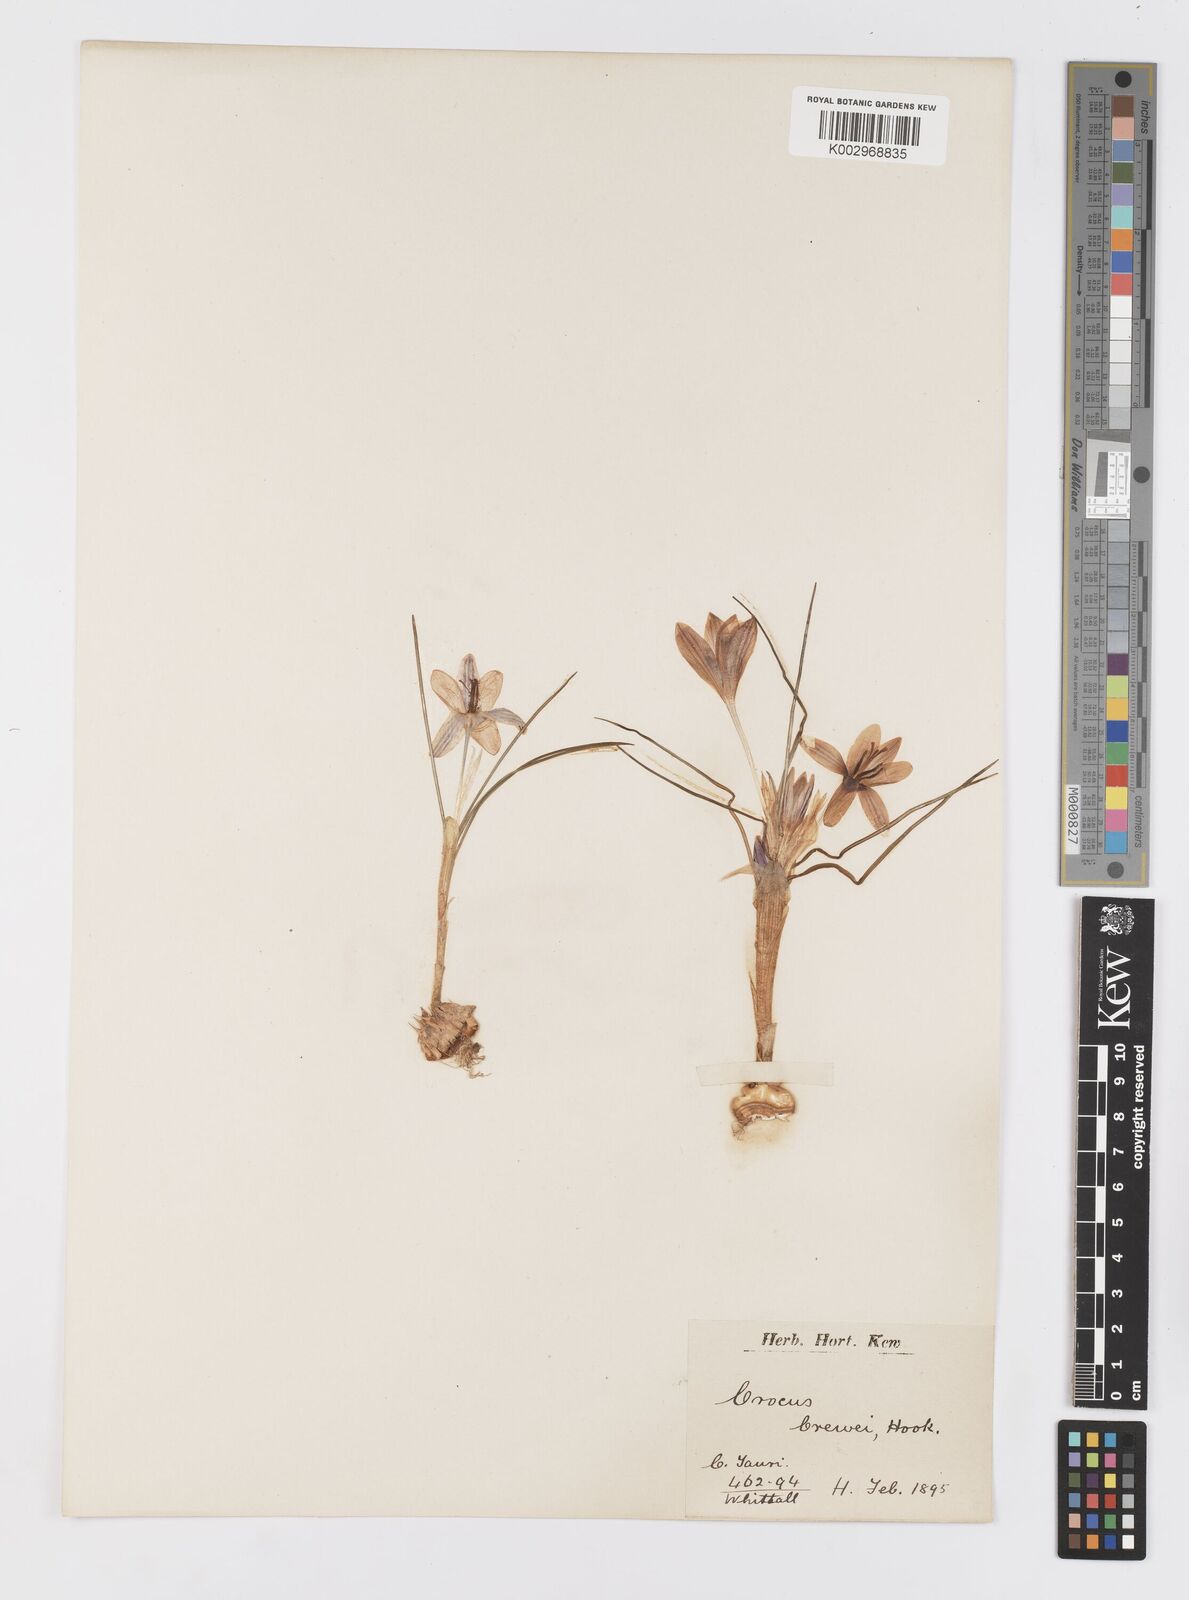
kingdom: Plantae
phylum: Tracheophyta
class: Liliopsida
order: Asparagales
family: Iridaceae
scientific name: Iridaceae
